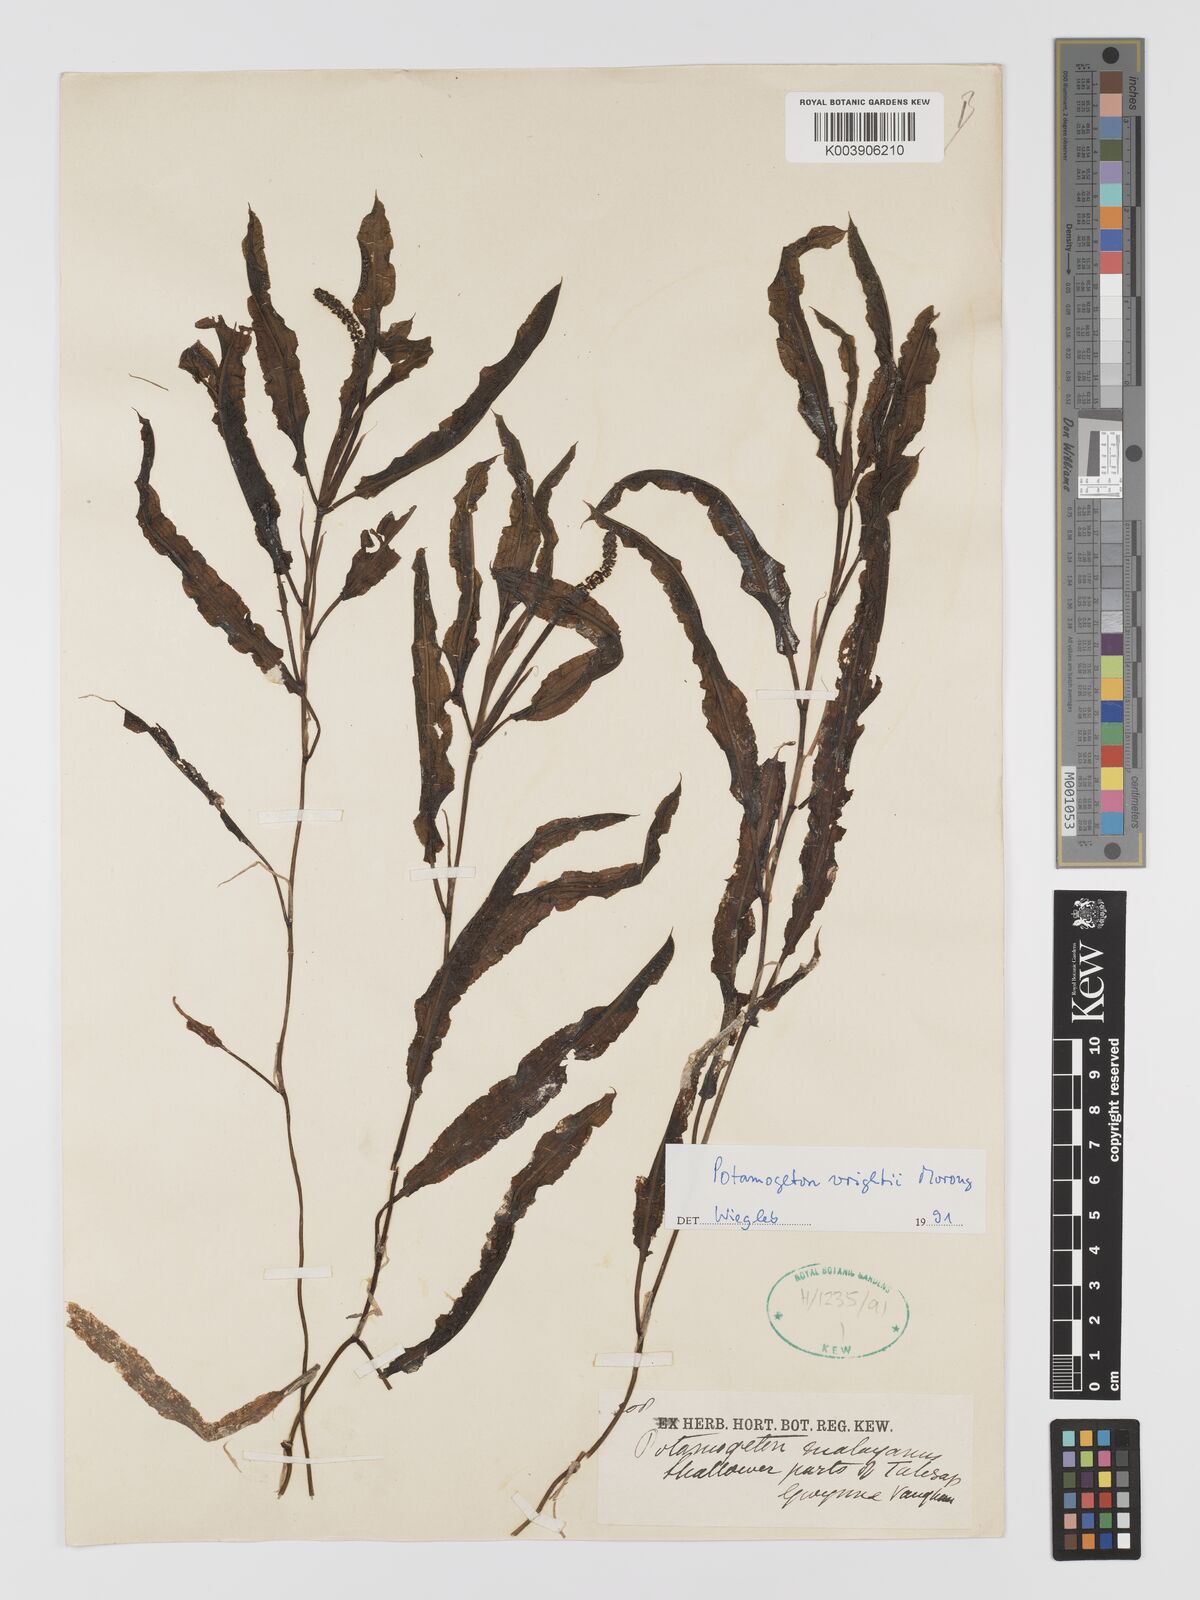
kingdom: Plantae
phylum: Tracheophyta
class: Liliopsida
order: Alismatales
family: Potamogetonaceae
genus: Potamogeton
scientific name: Potamogeton wrightii
